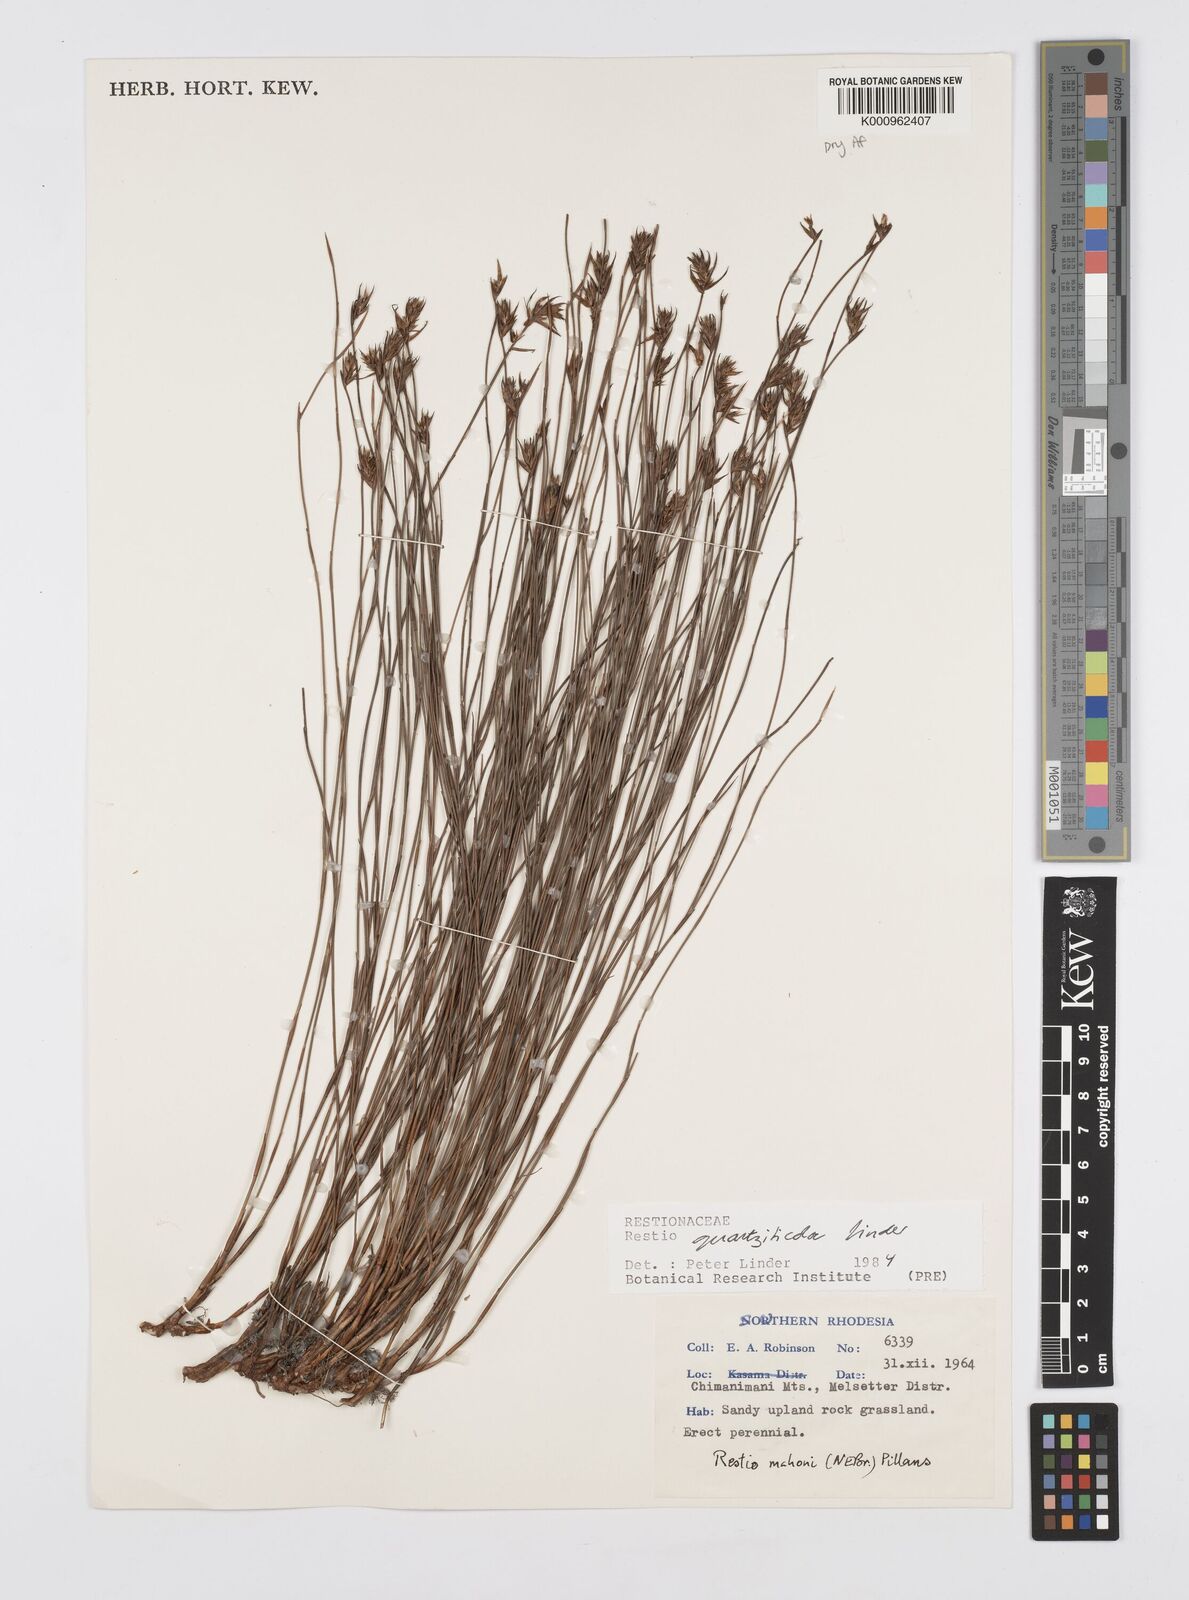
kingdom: Plantae
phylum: Tracheophyta
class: Liliopsida
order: Poales
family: Restionaceae
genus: Platycaulos
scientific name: Platycaulos quartziticola
